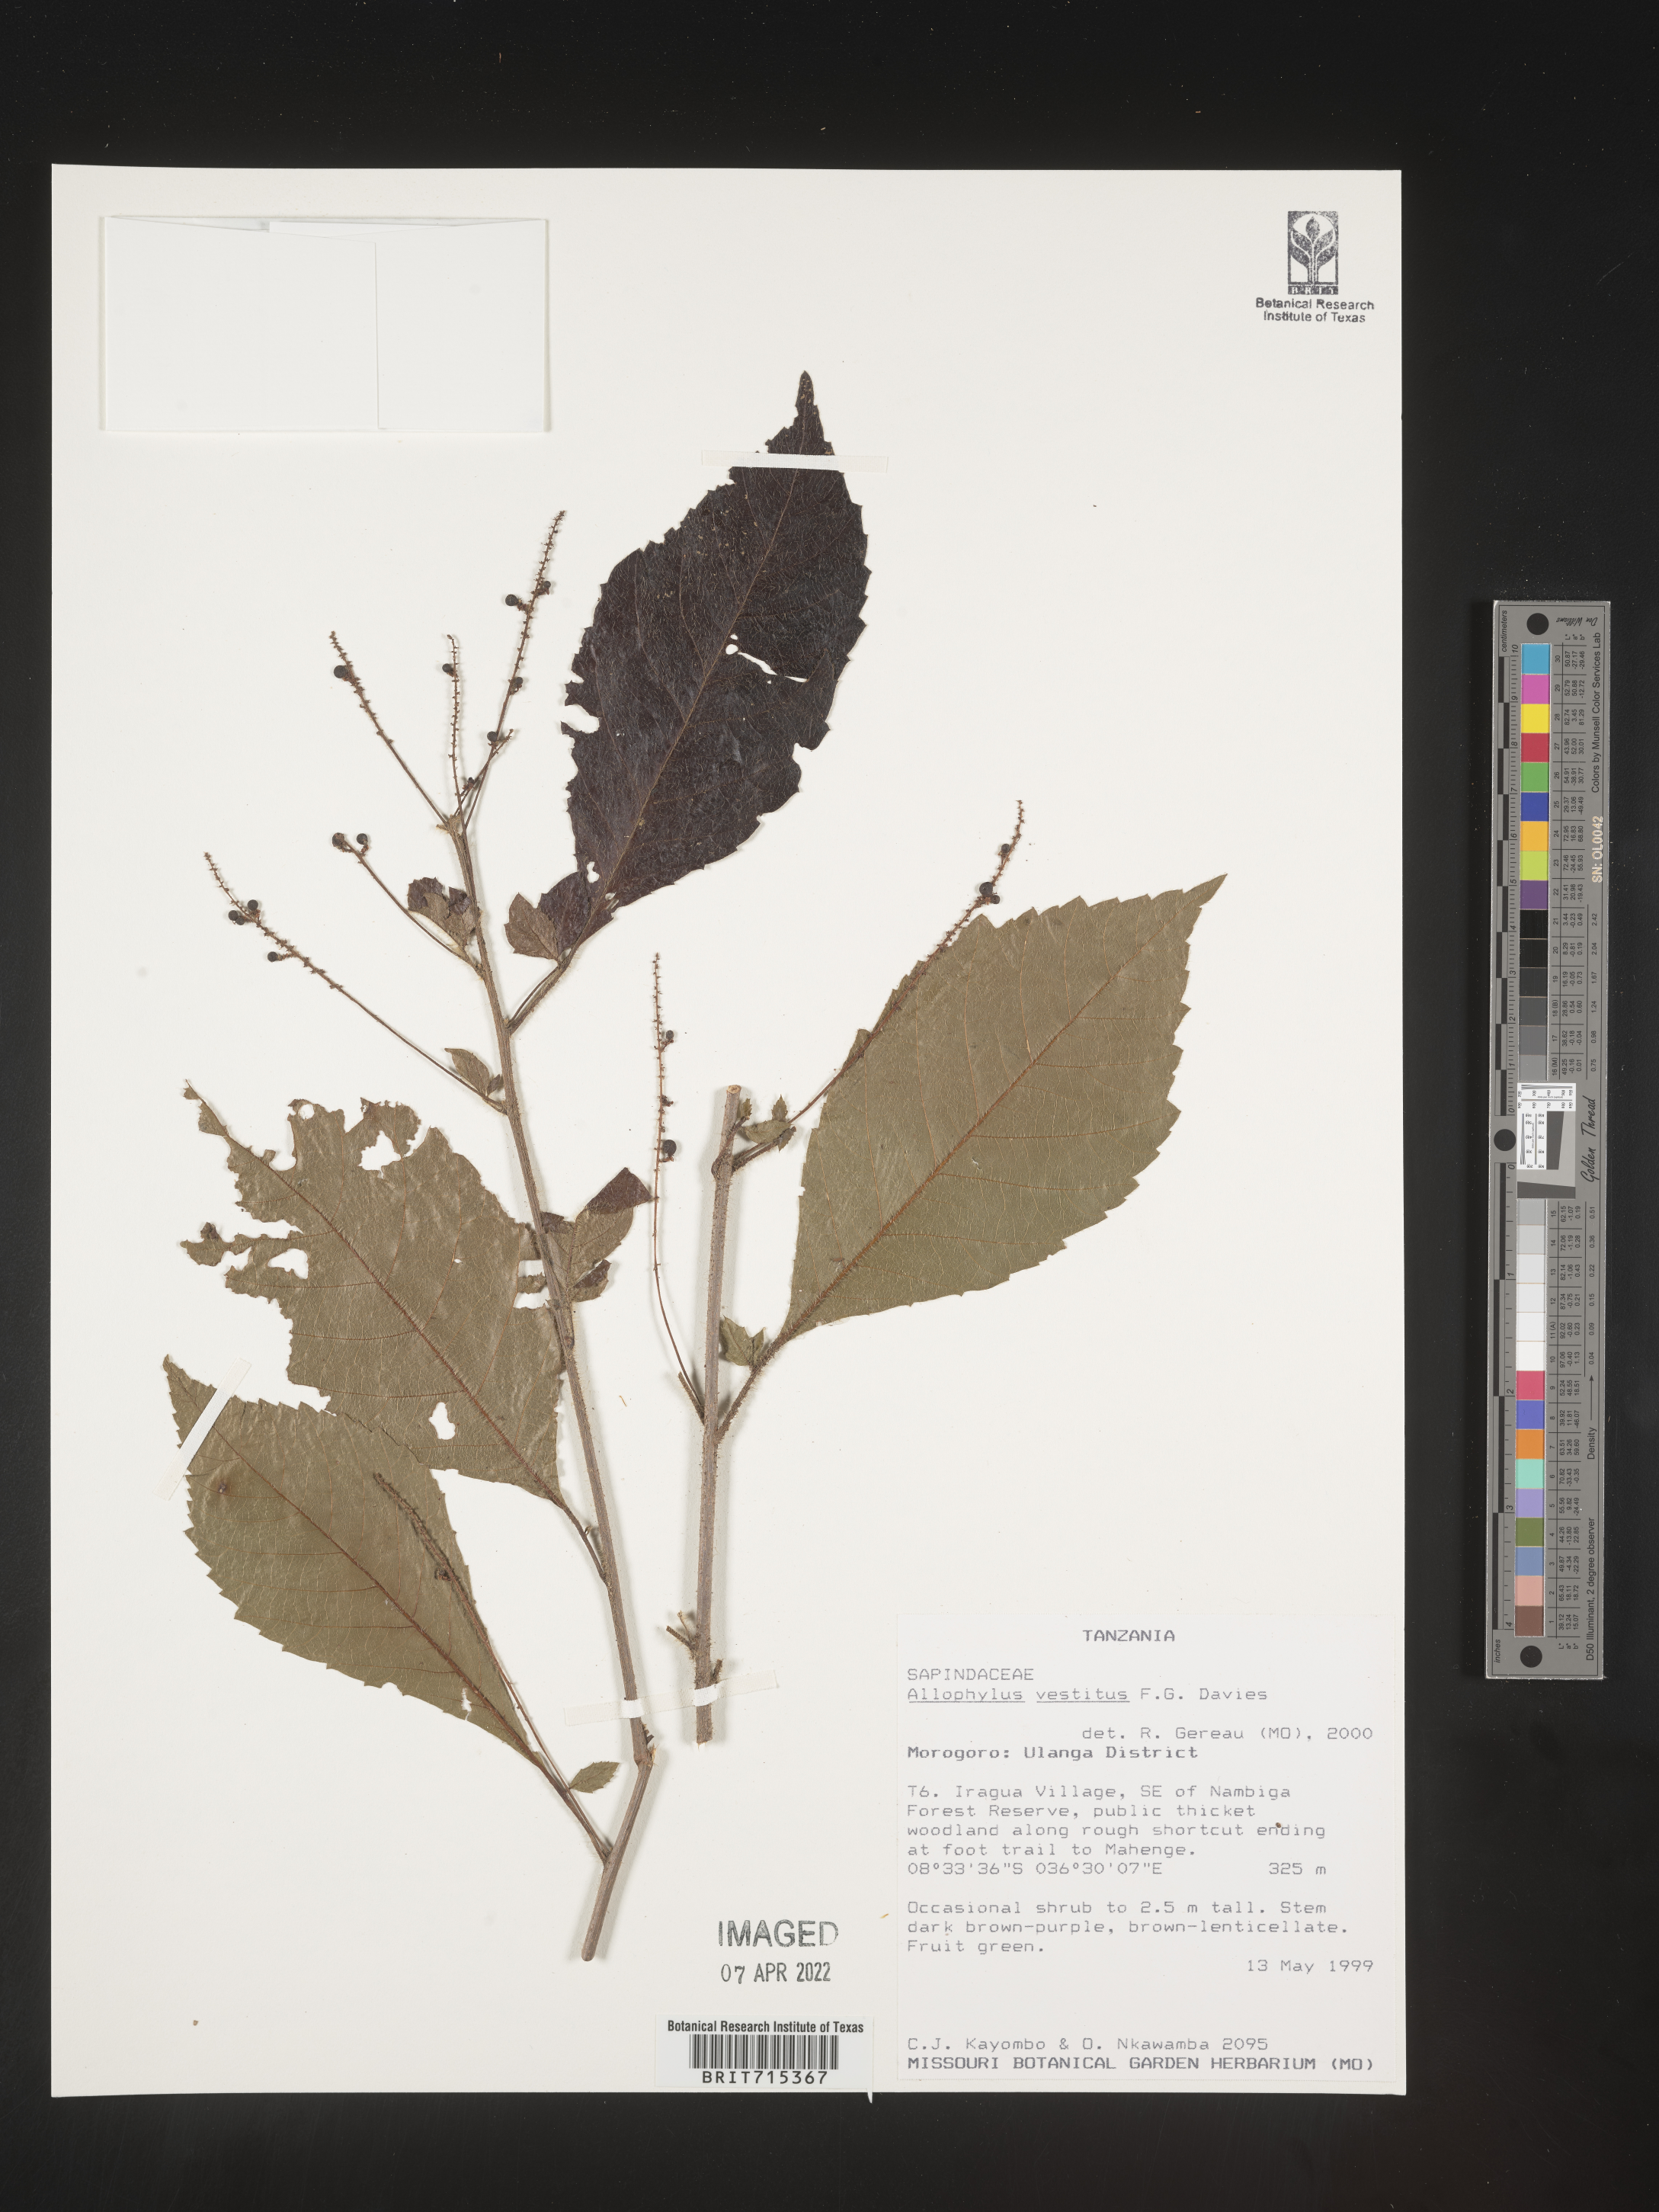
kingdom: Plantae
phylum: Tracheophyta
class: Magnoliopsida
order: Sapindales
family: Sapindaceae
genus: Allophylus
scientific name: Allophylus rubifolius
